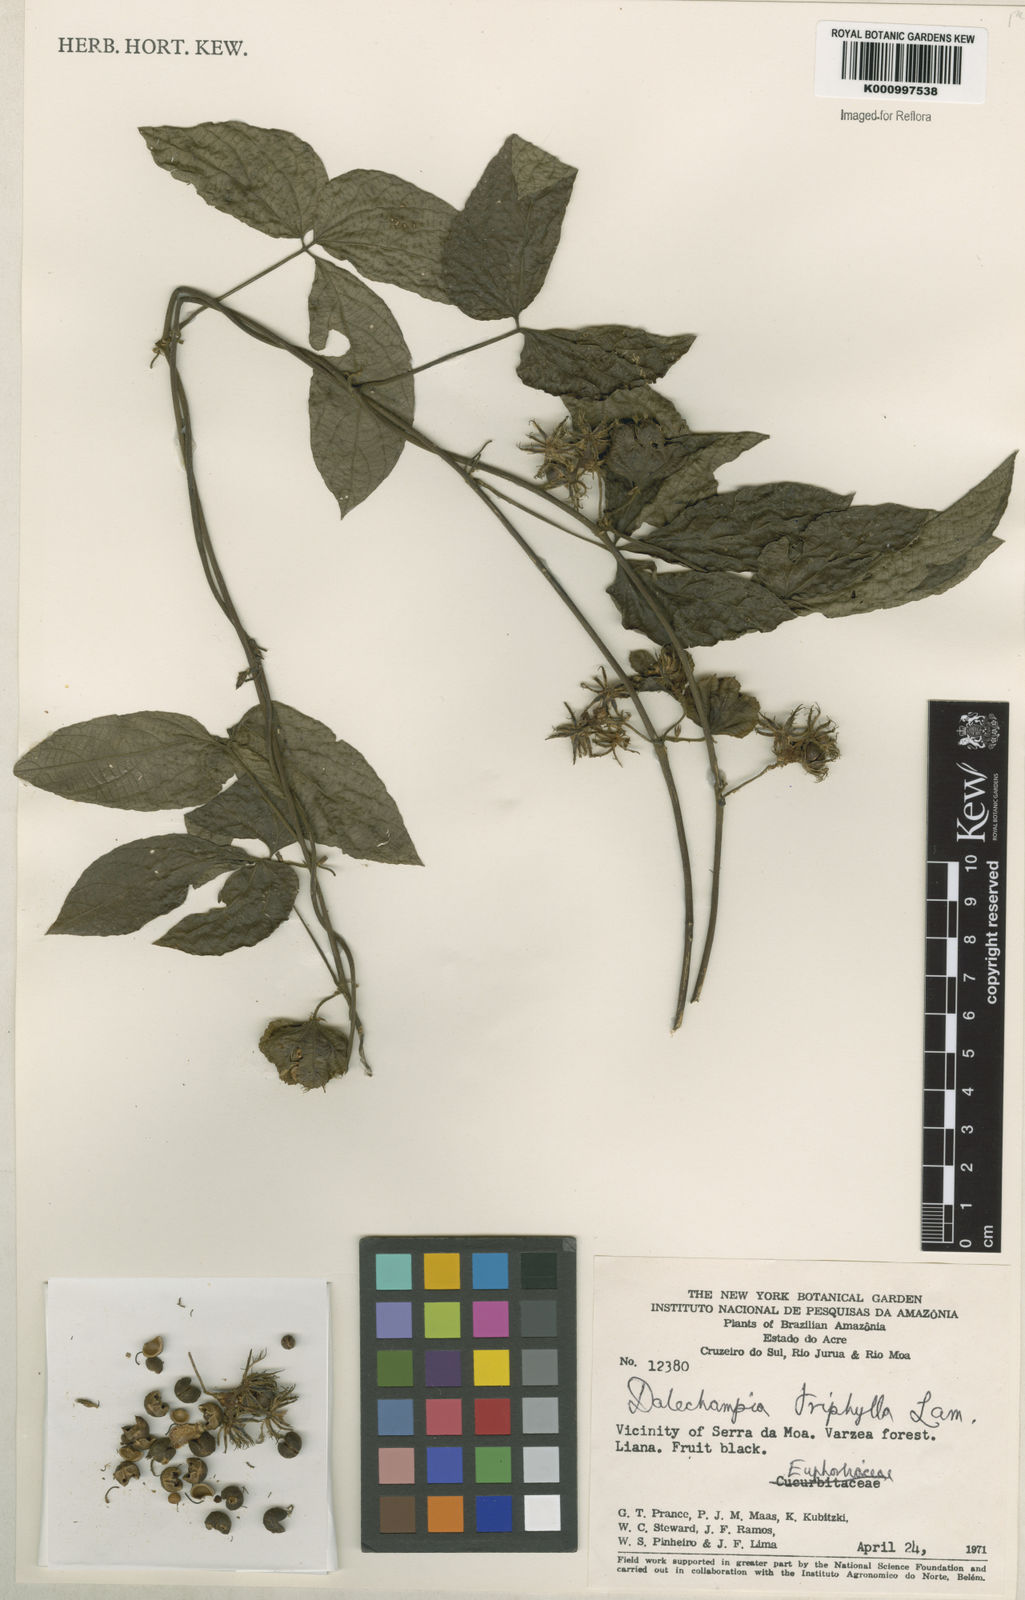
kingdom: Plantae
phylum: Tracheophyta
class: Magnoliopsida
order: Malpighiales
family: Euphorbiaceae
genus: Dalechampia
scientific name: Dalechampia triphylla
